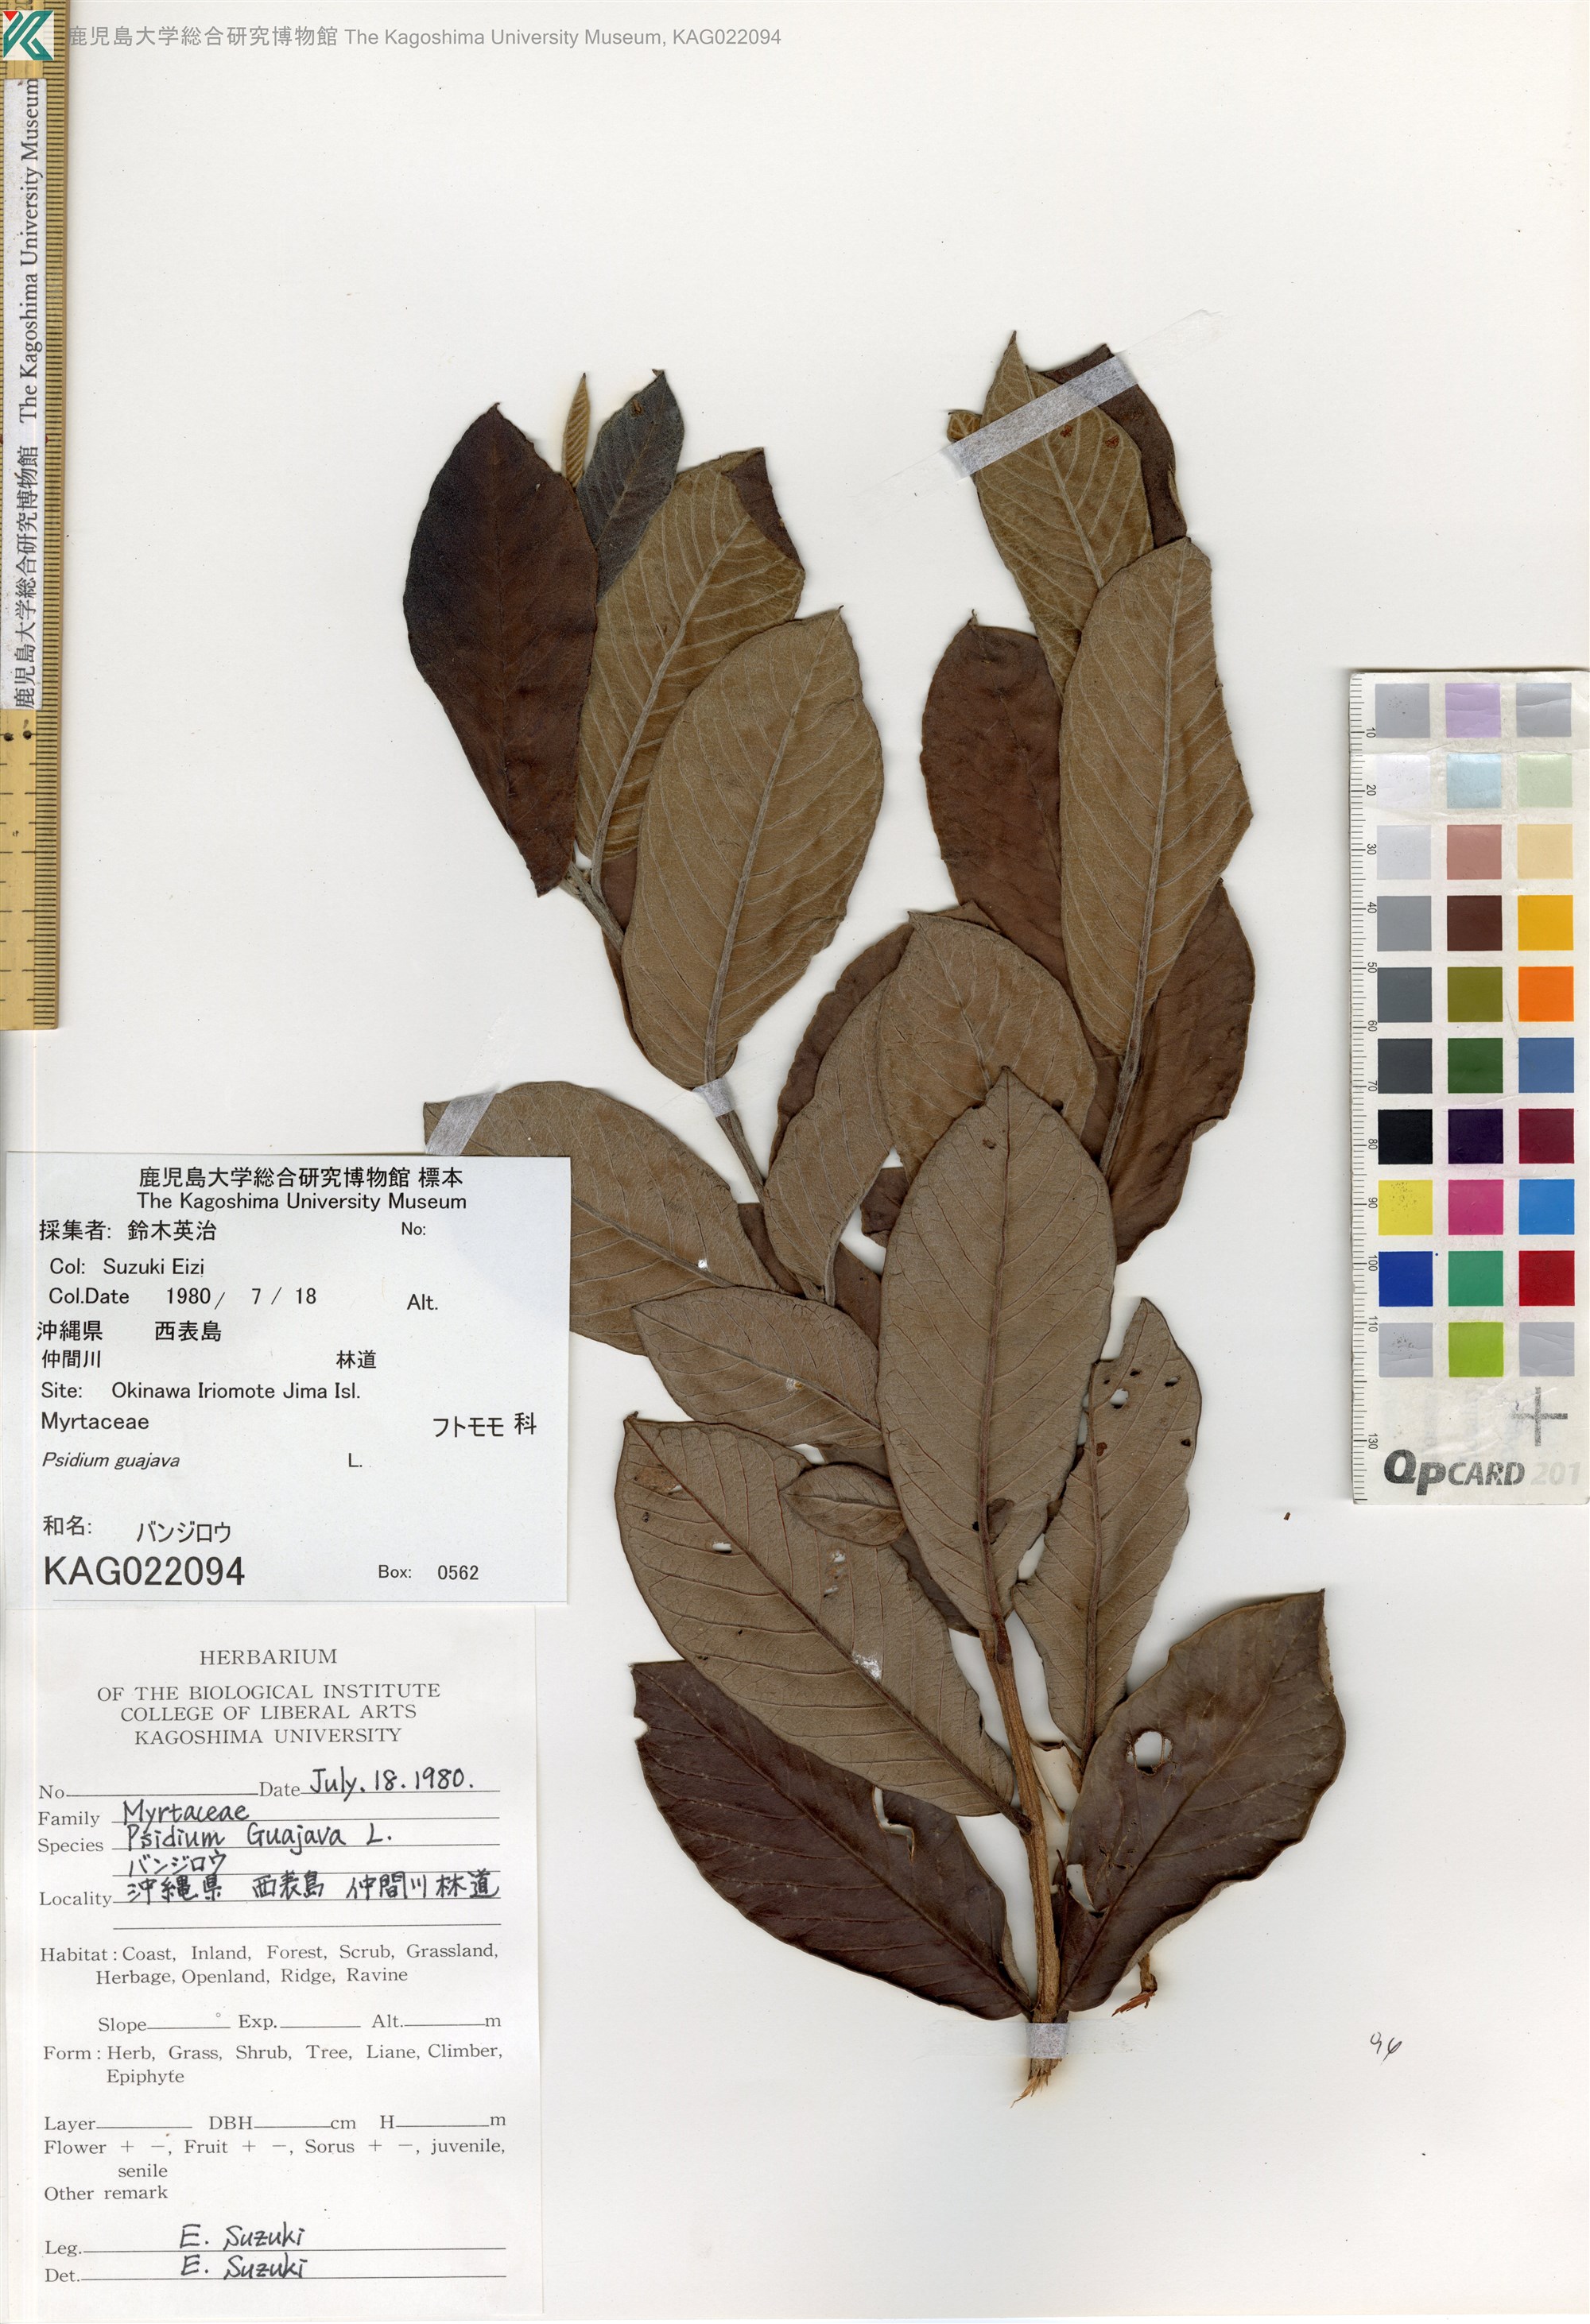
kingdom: Plantae
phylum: Tracheophyta
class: Magnoliopsida
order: Myrtales
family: Myrtaceae
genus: Psidium
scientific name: Psidium guajava
